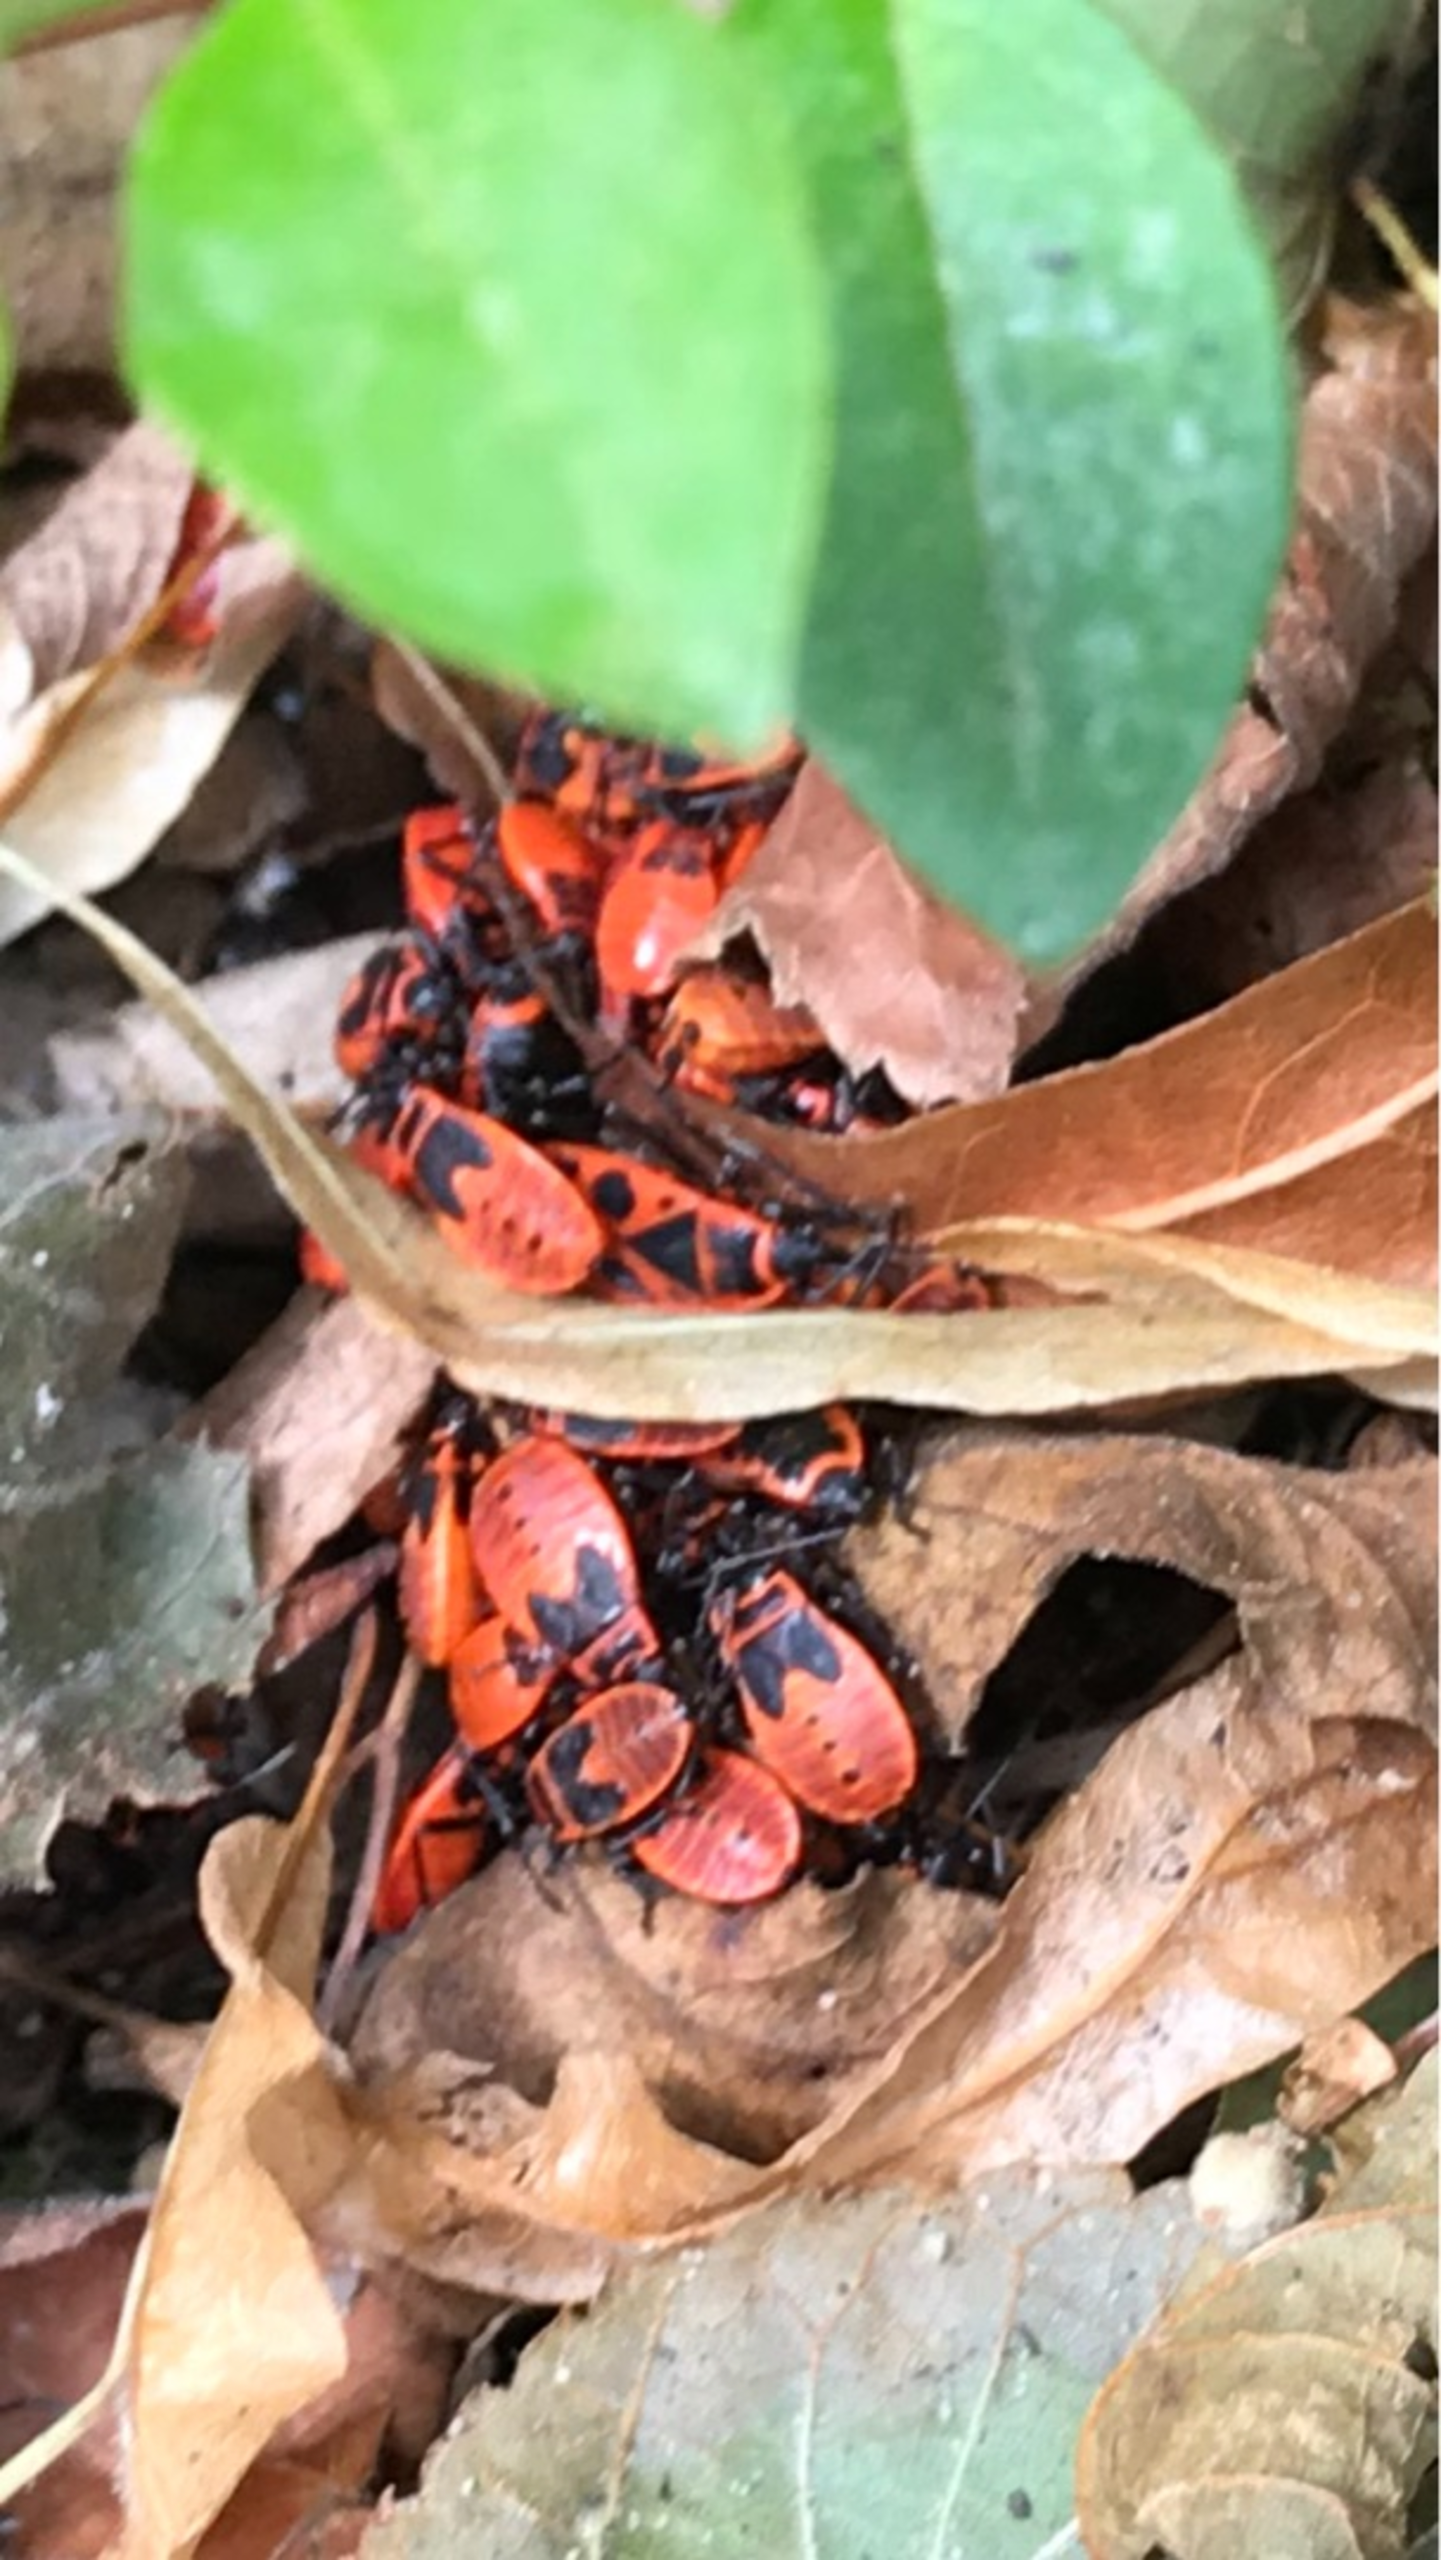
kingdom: Animalia
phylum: Arthropoda
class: Insecta
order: Hemiptera
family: Pyrrhocoridae
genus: Pyrrhocoris
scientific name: Pyrrhocoris apterus
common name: Ildtæge
